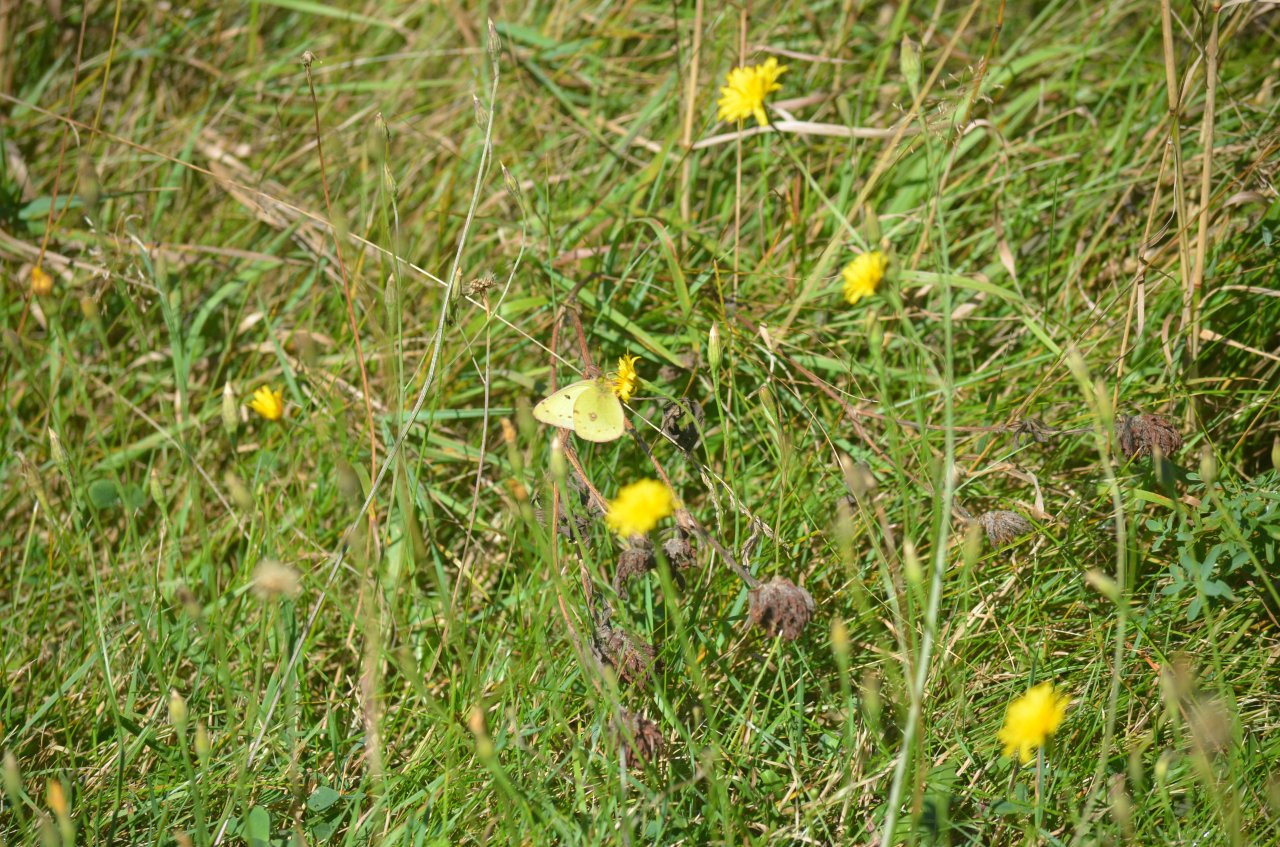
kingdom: Animalia
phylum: Arthropoda
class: Insecta
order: Lepidoptera
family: Pieridae
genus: Colias
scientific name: Colias philodice
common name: Clouded Sulphur
